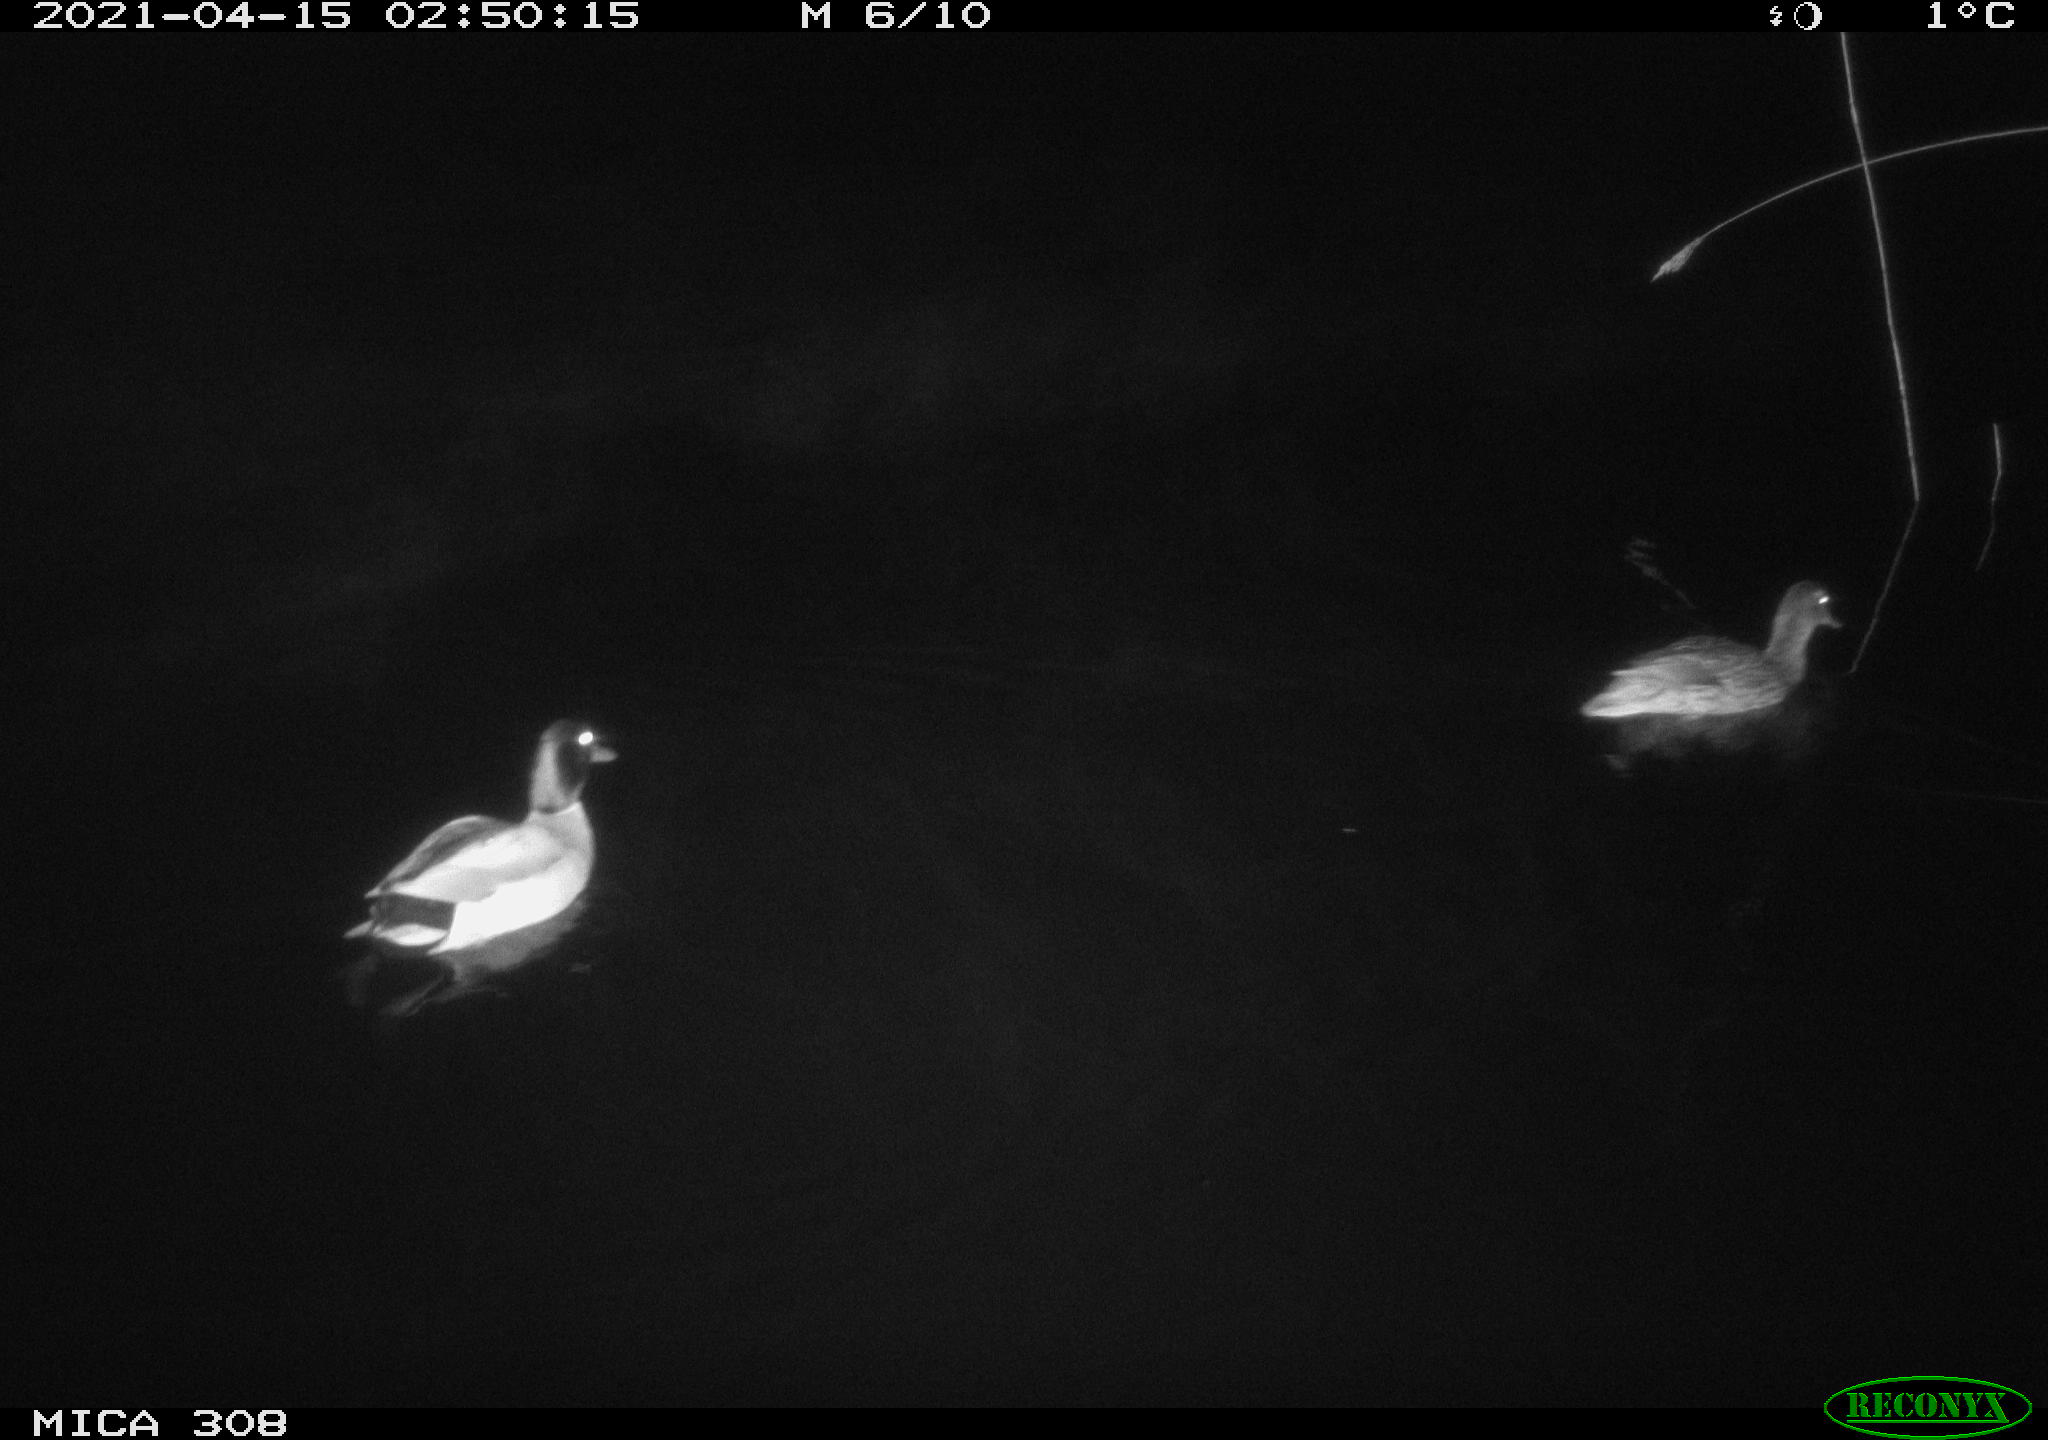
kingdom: Animalia
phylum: Chordata
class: Aves
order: Anseriformes
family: Anatidae
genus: Anas
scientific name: Anas platyrhynchos
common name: Mallard
